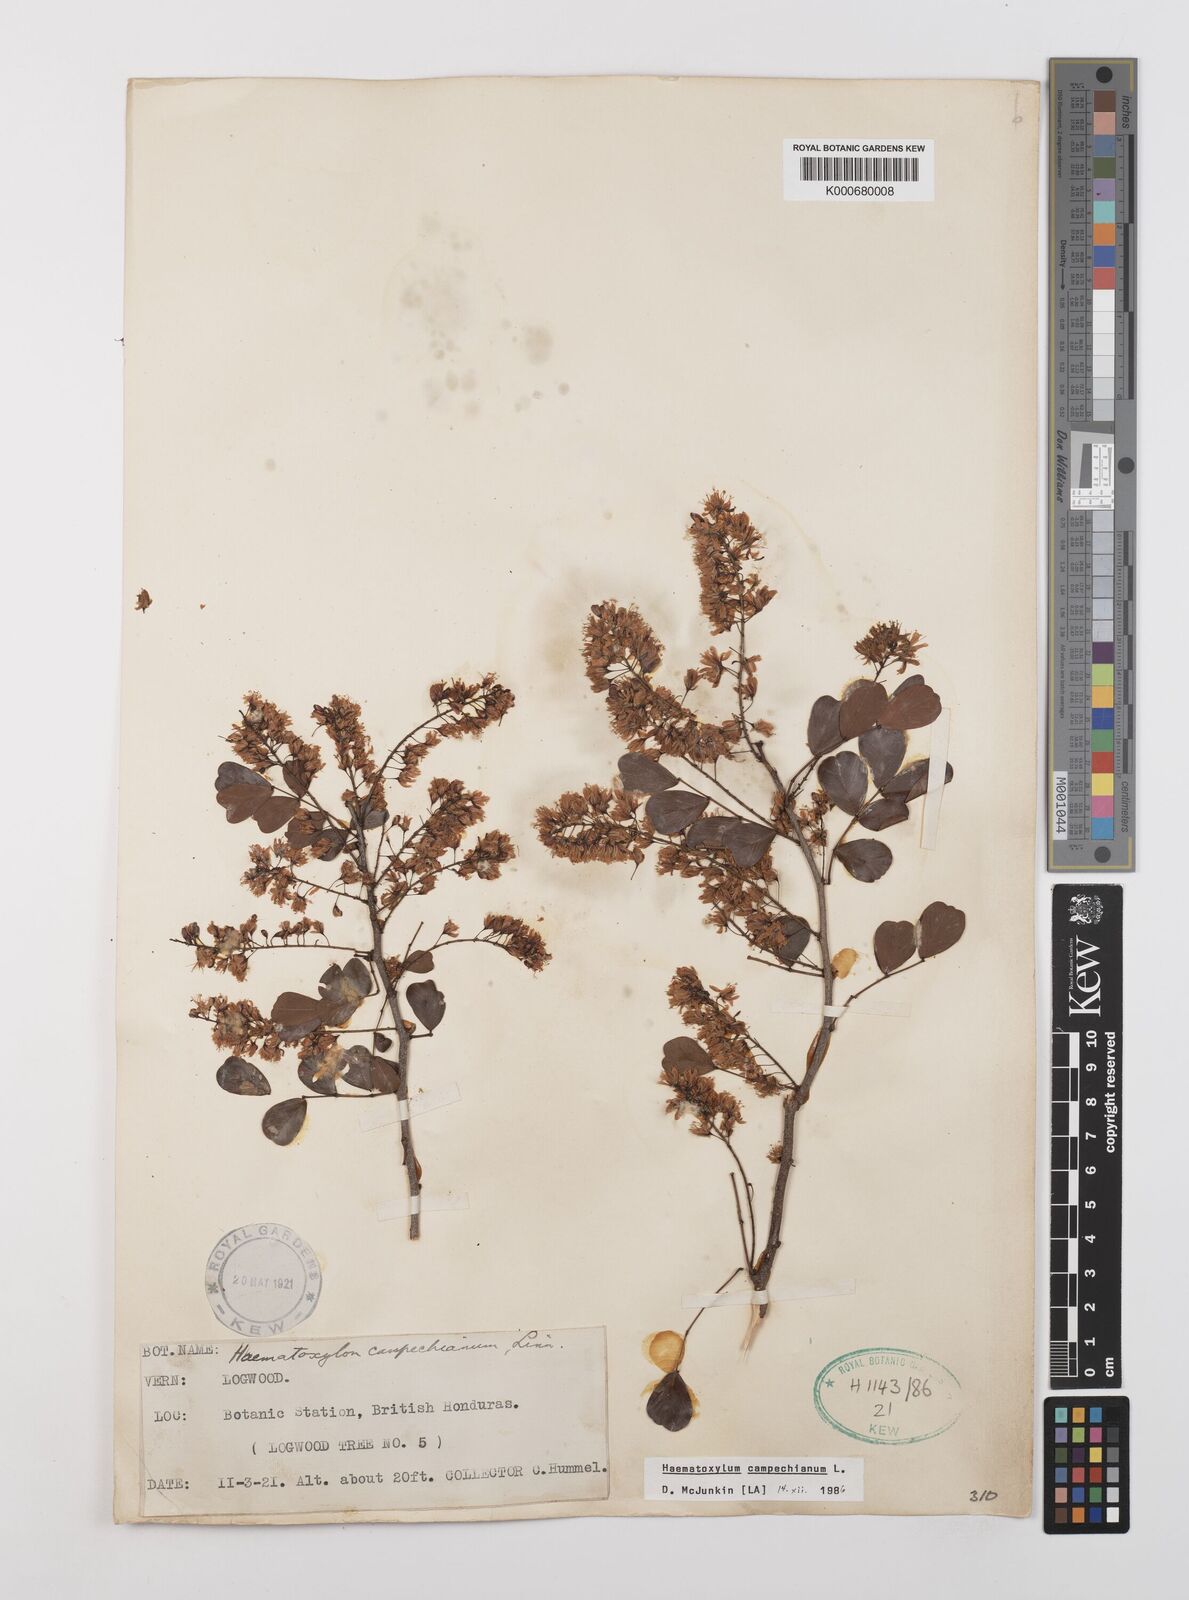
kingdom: Plantae
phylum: Tracheophyta
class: Magnoliopsida
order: Fabales
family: Fabaceae
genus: Haematoxylum
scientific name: Haematoxylum
